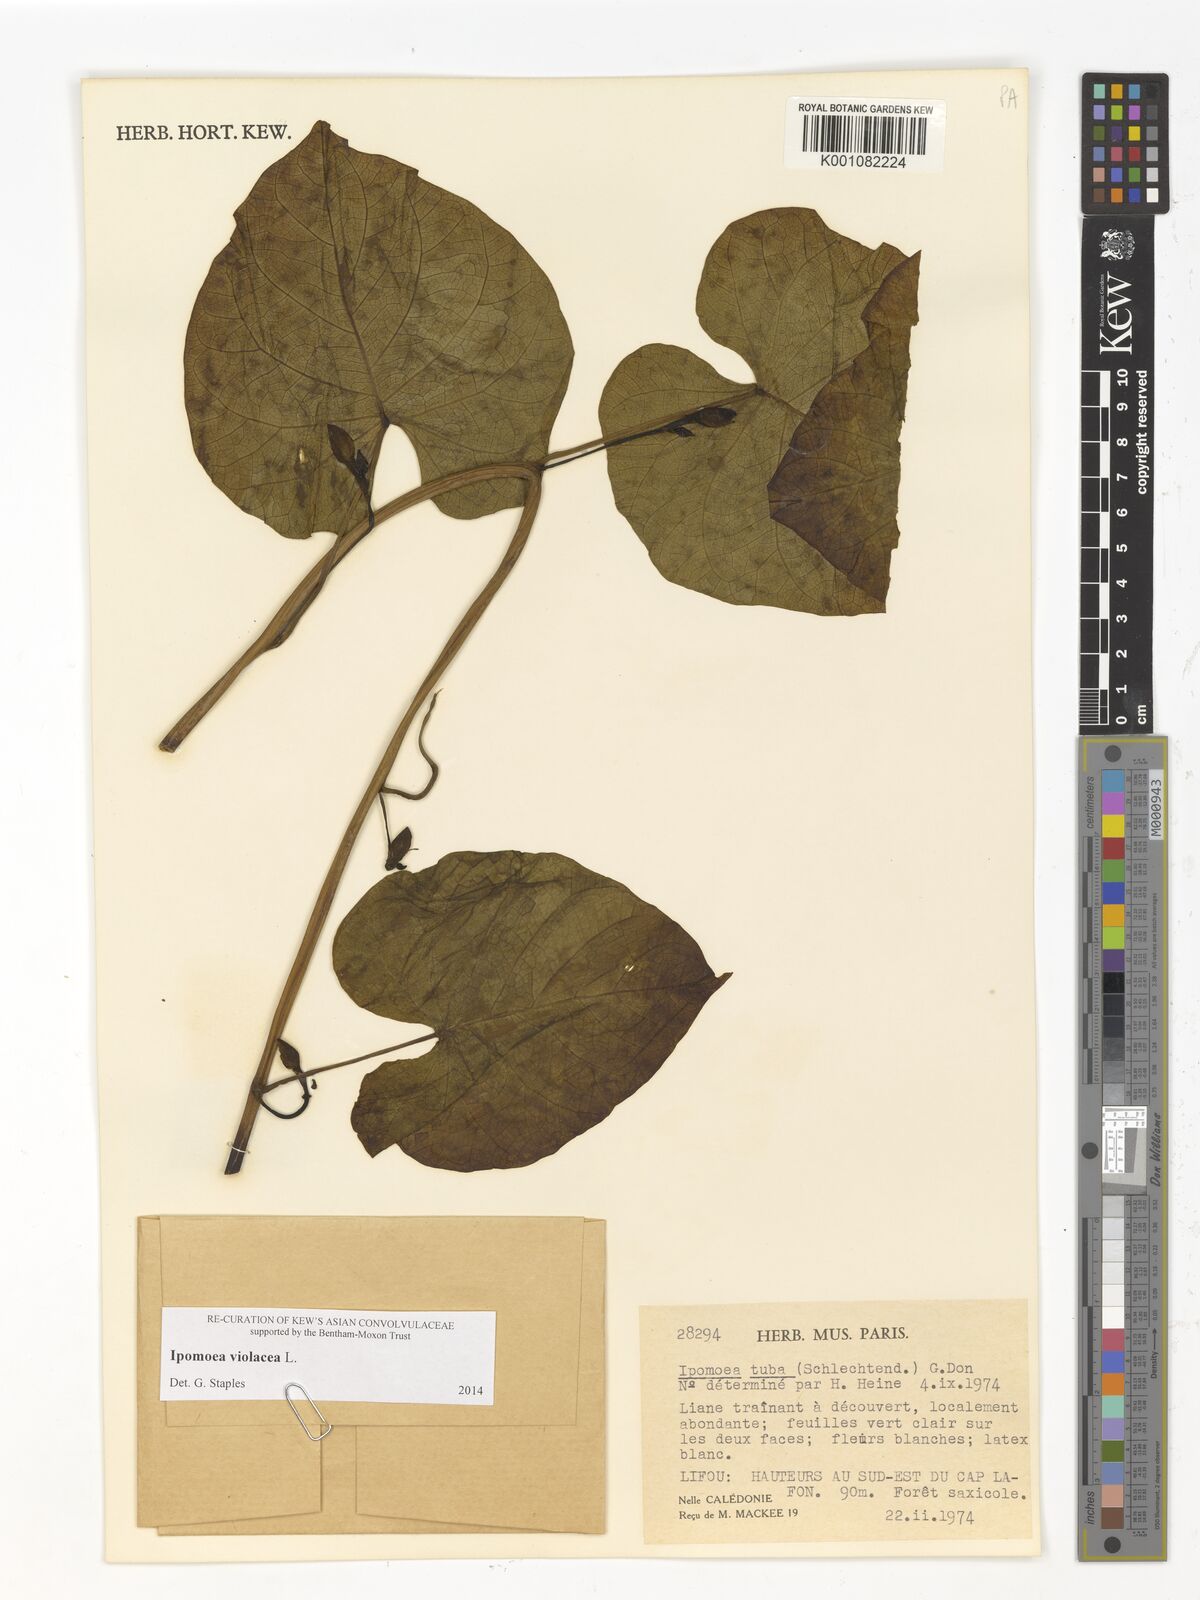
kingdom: Plantae
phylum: Tracheophyta
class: Magnoliopsida
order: Solanales
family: Convolvulaceae
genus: Ipomoea
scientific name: Ipomoea violacea
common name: Beach moonflower
